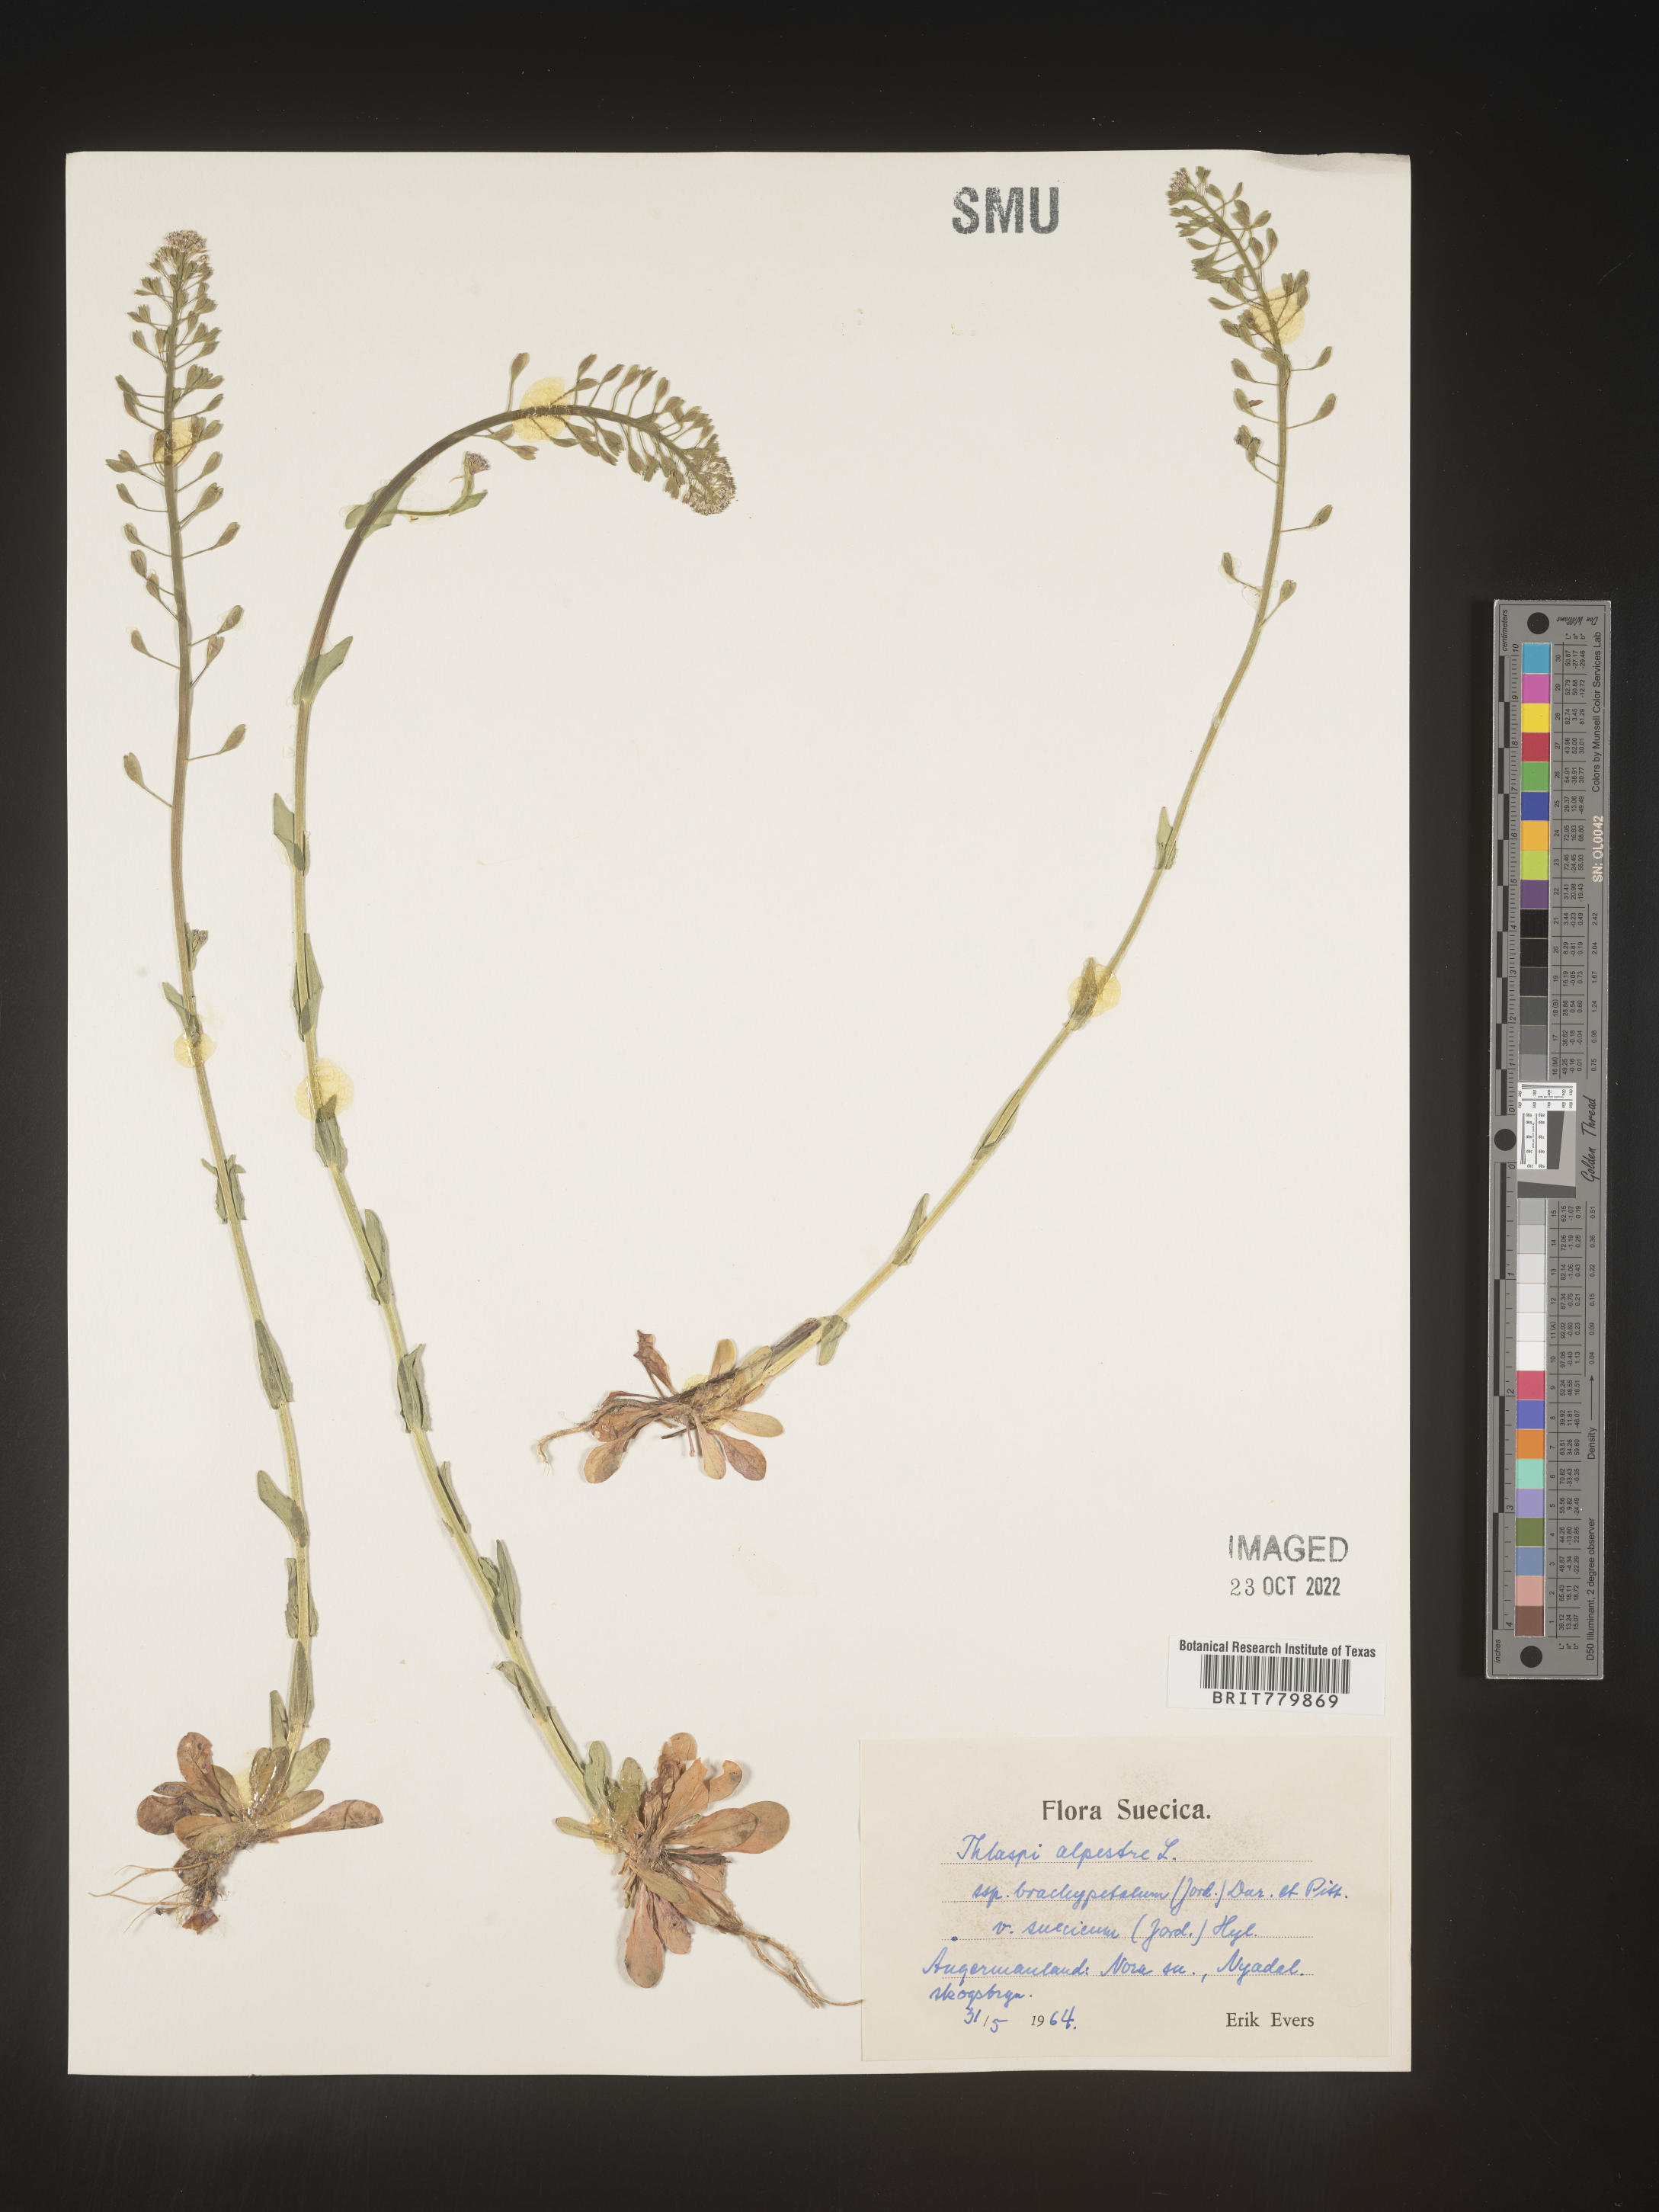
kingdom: Plantae
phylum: Tracheophyta
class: Magnoliopsida
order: Brassicales
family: Brassicaceae
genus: Thlaspi
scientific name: Thlaspi
